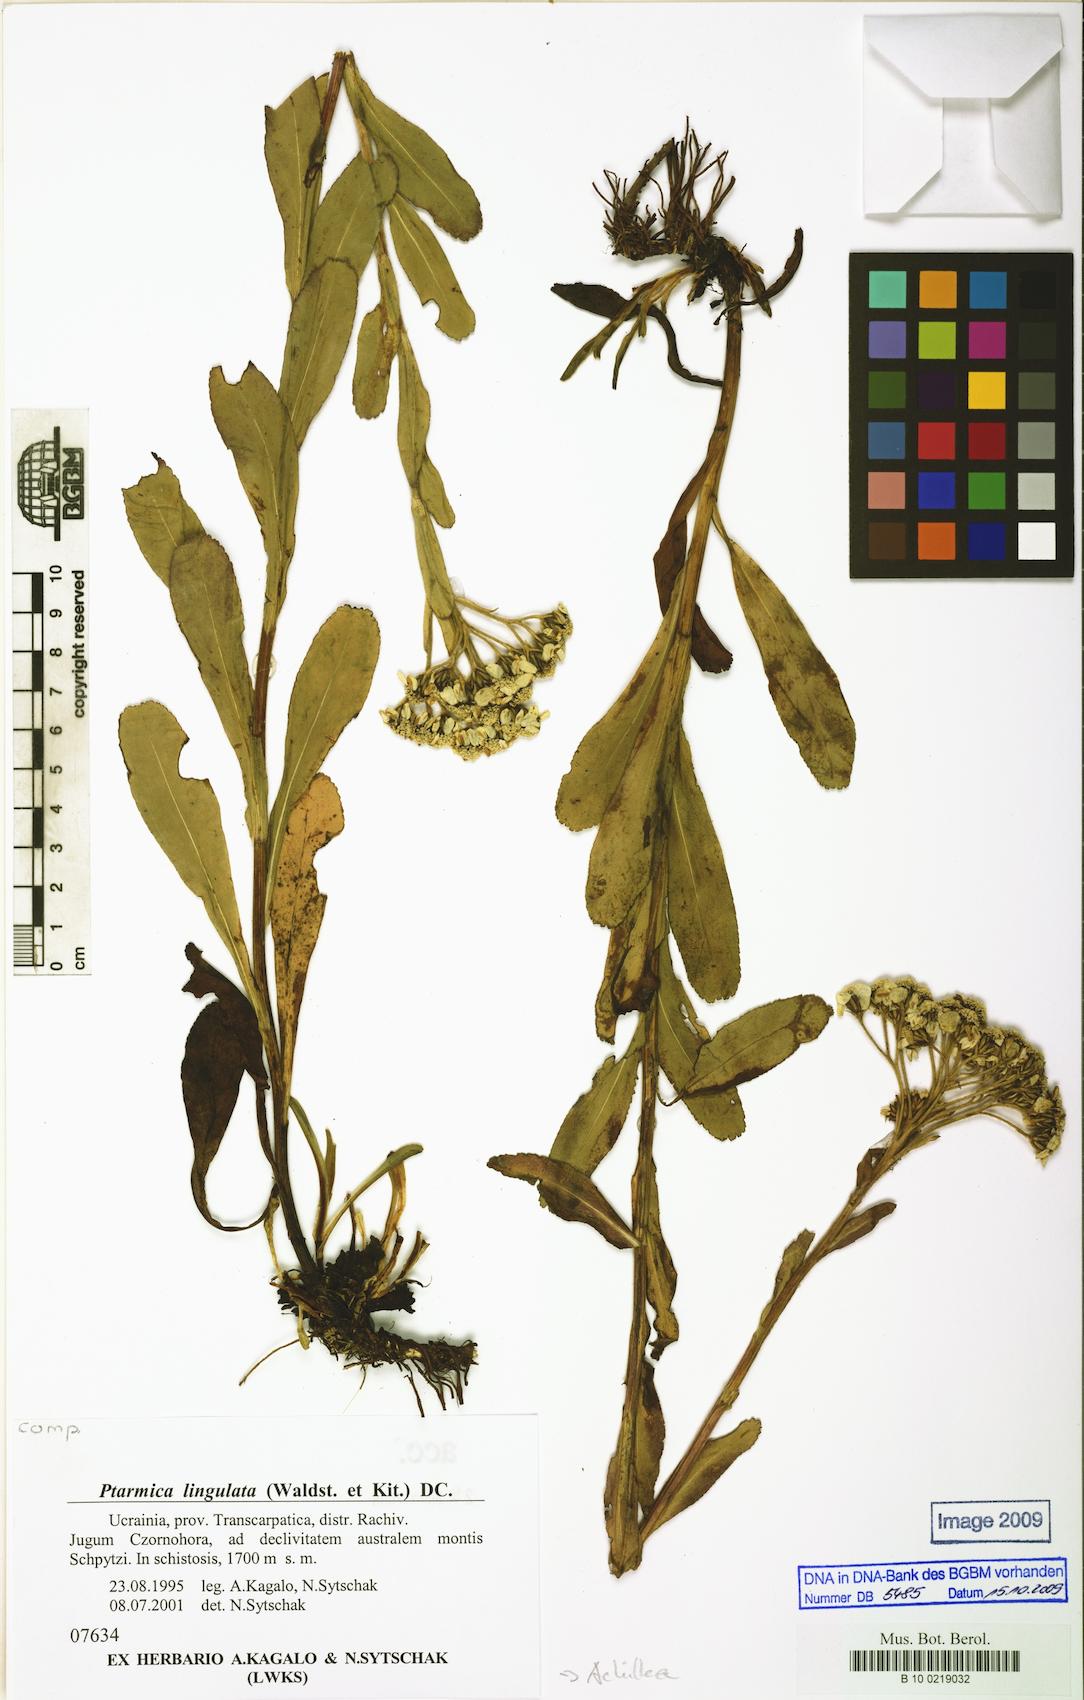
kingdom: Plantae
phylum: Tracheophyta
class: Magnoliopsida
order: Asterales
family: Asteraceae
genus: Achillea
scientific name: Achillea lingulata
